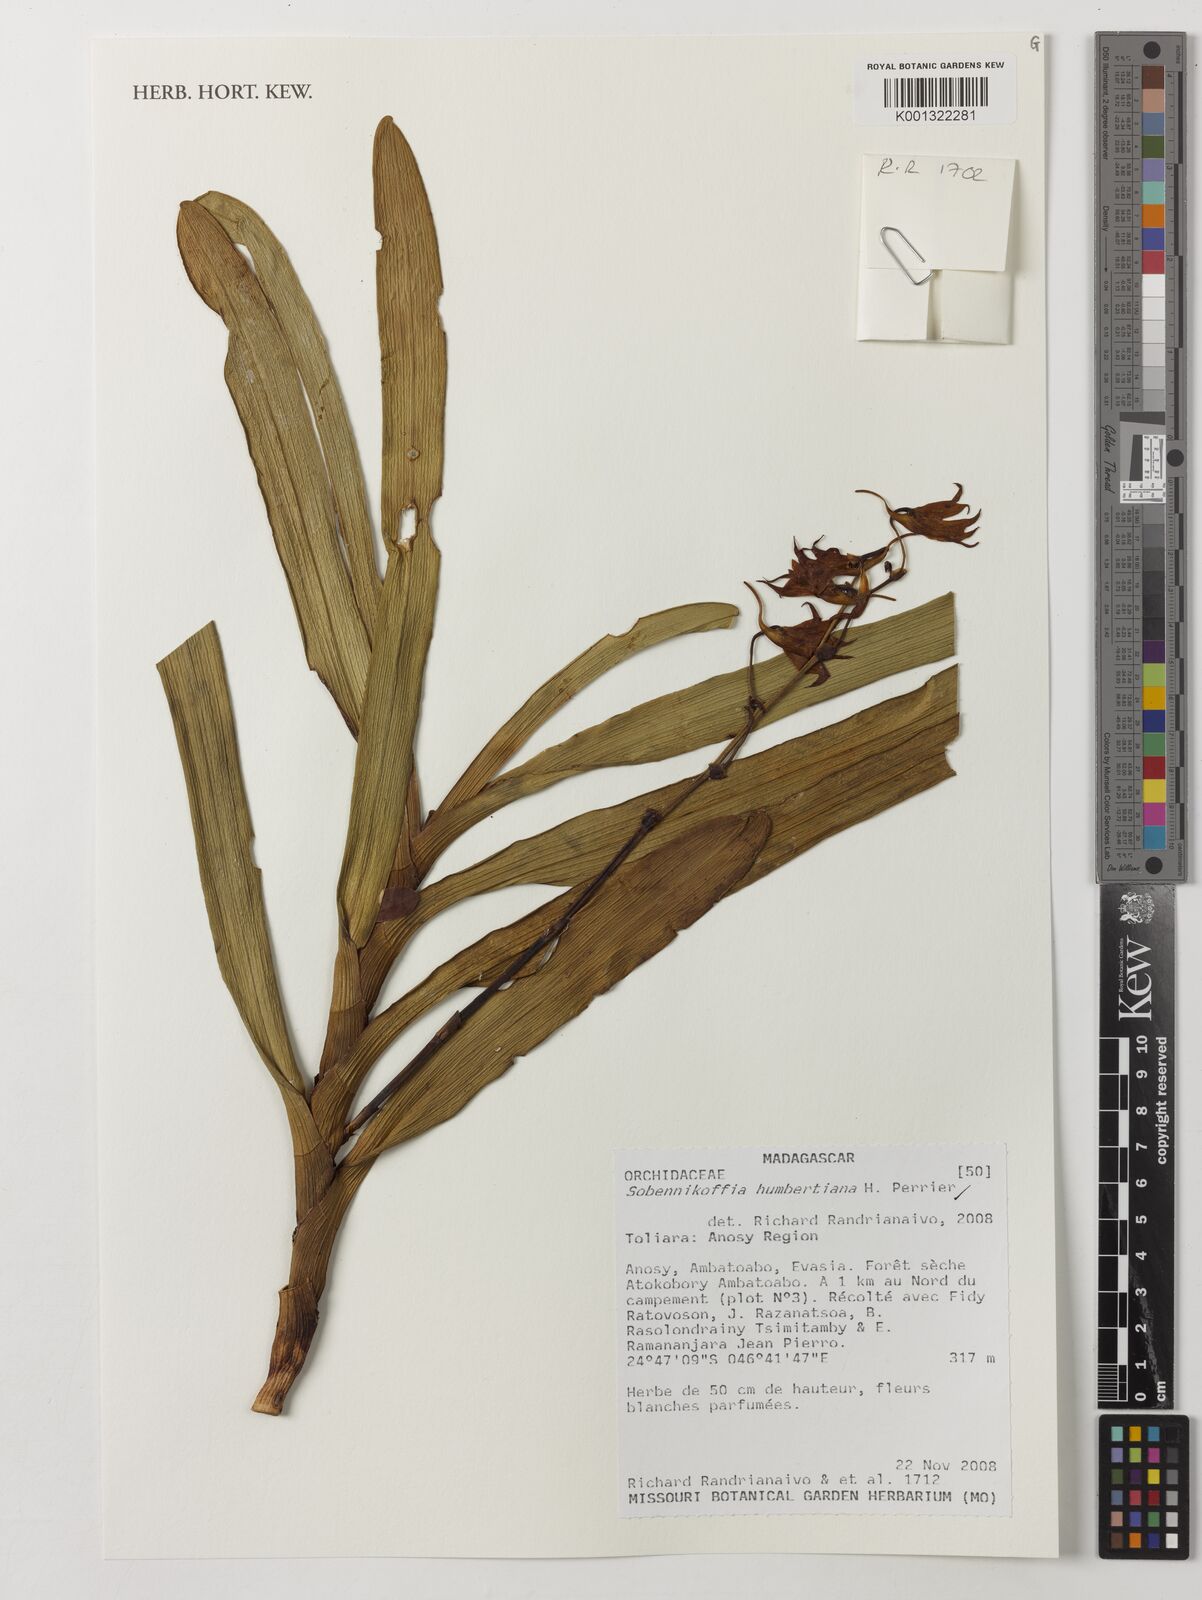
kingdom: Plantae
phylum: Tracheophyta
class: Liliopsida
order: Asparagales
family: Orchidaceae
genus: Sobennikoffia
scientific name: Sobennikoffia humbertiana
